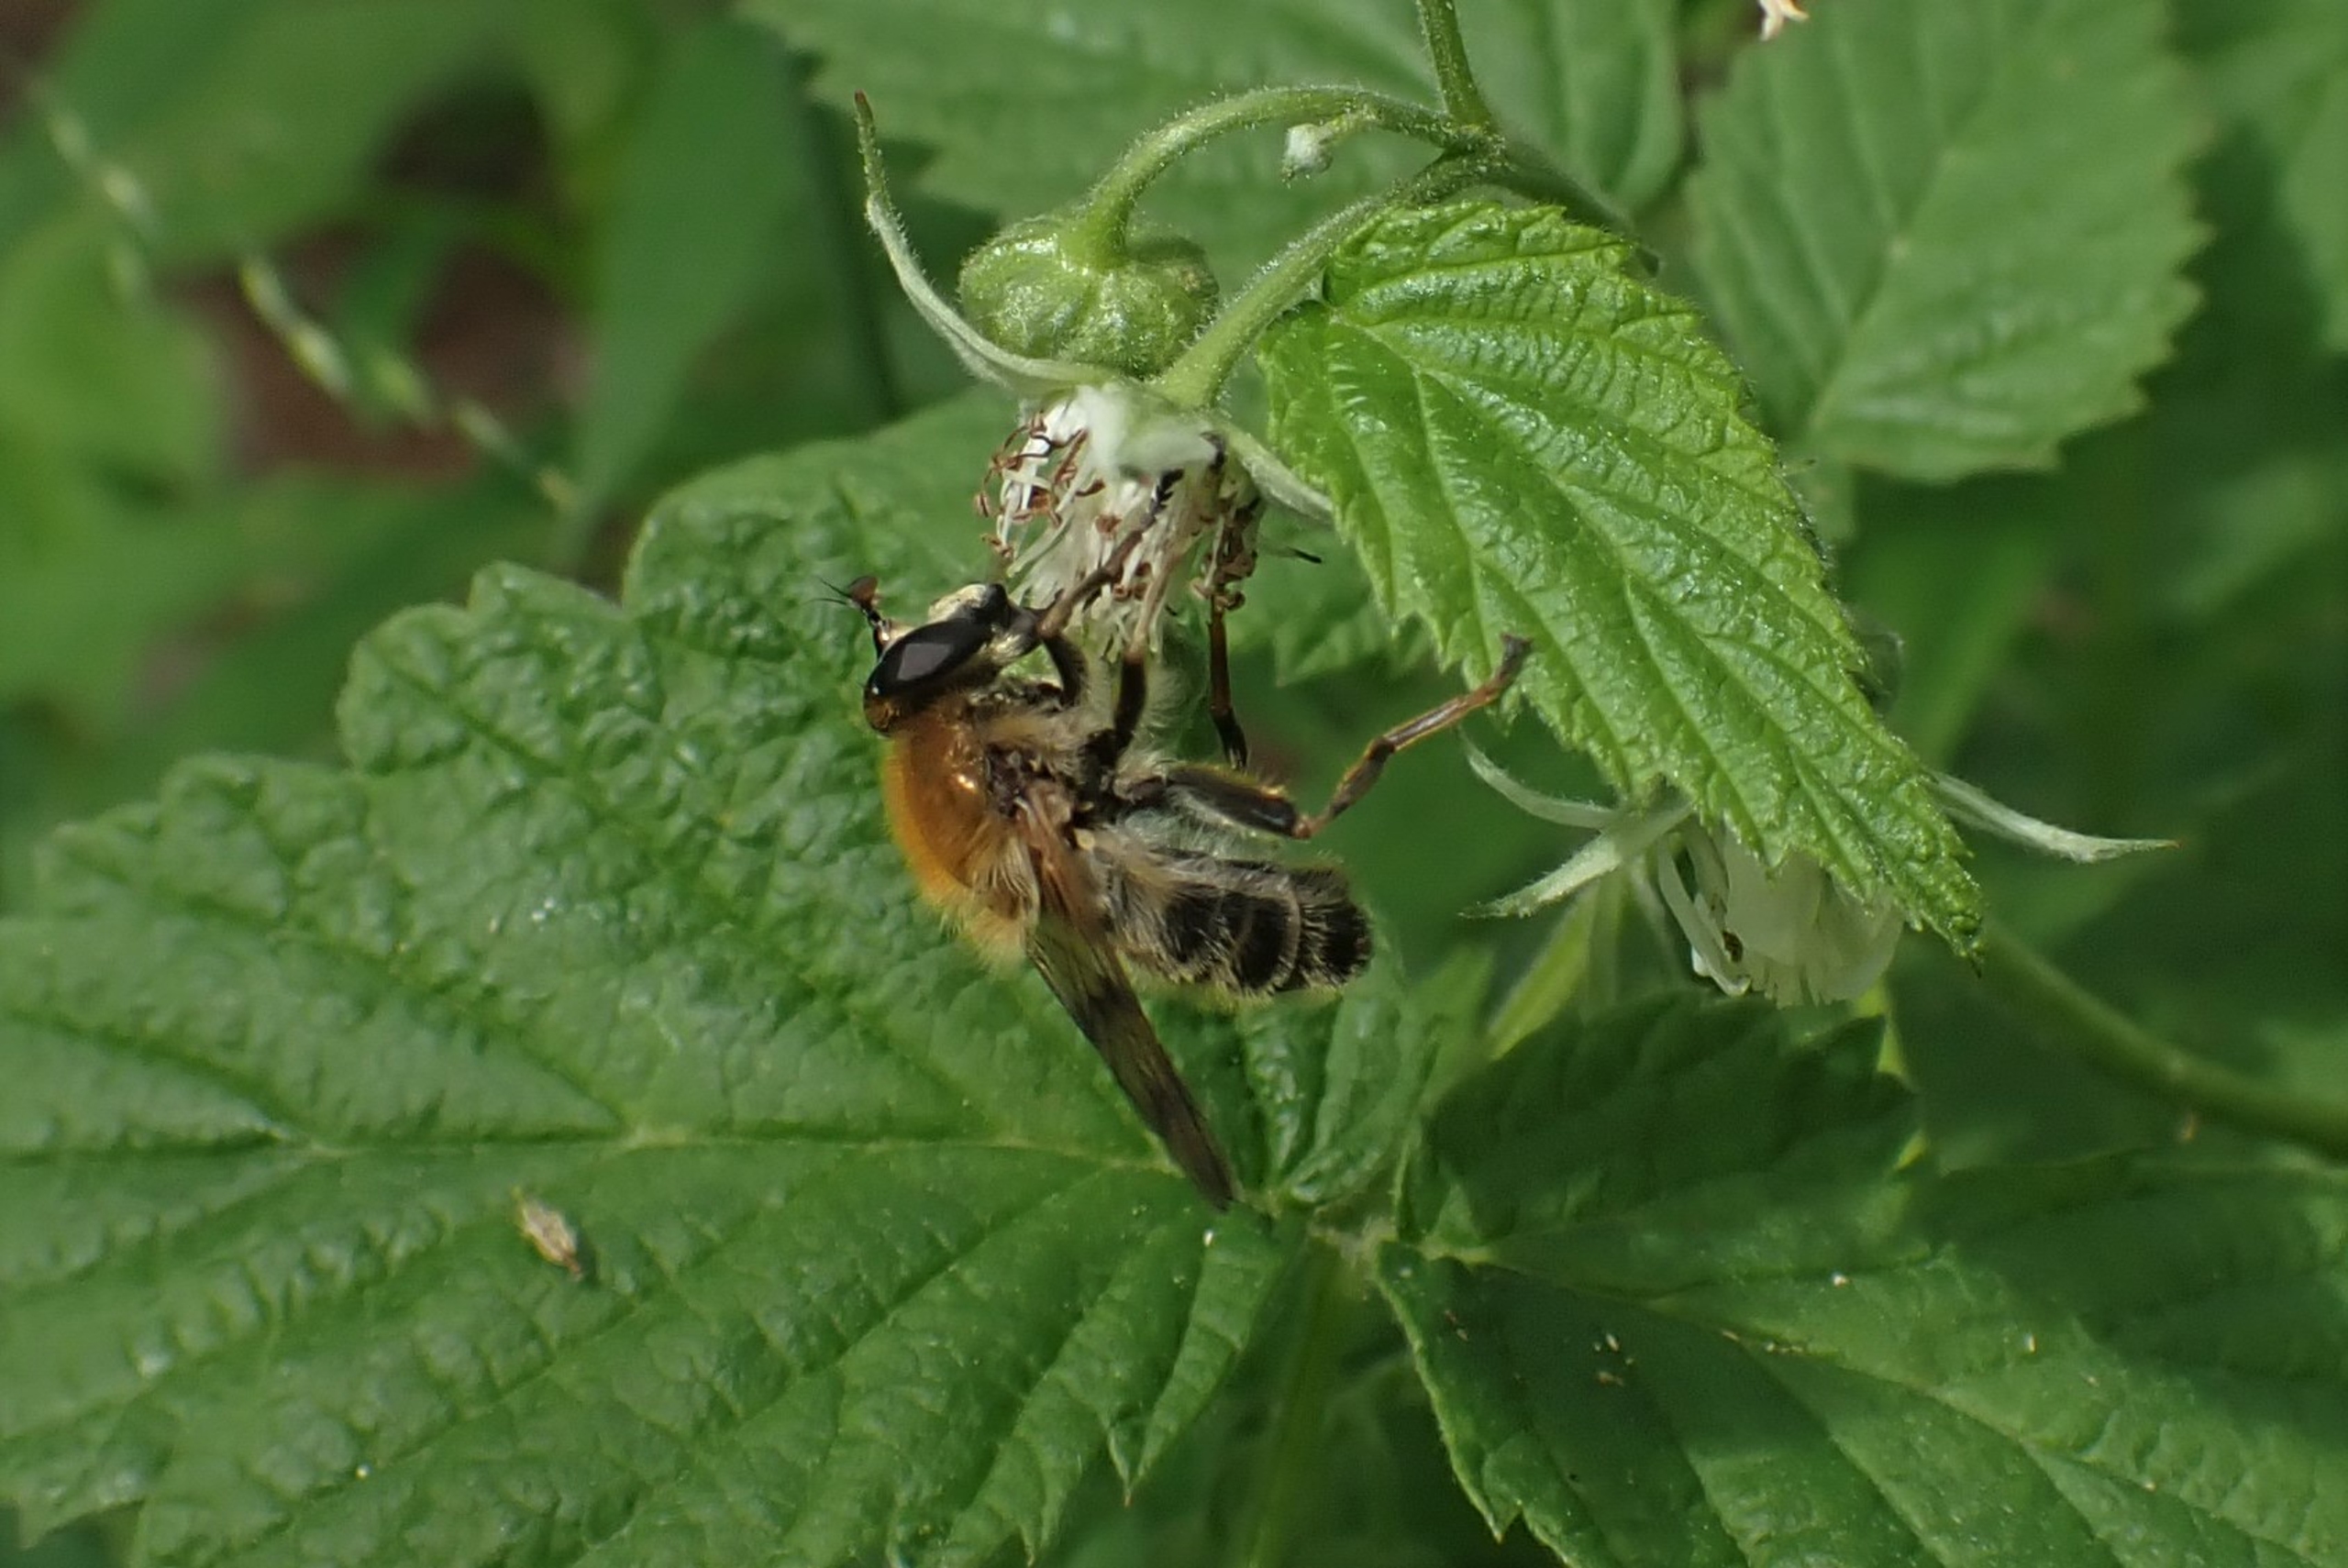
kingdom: Animalia
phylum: Arthropoda
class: Insecta
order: Diptera
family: Syrphidae
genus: Criorhina
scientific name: Criorhina asilica
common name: Bi-pelssvirreflue
